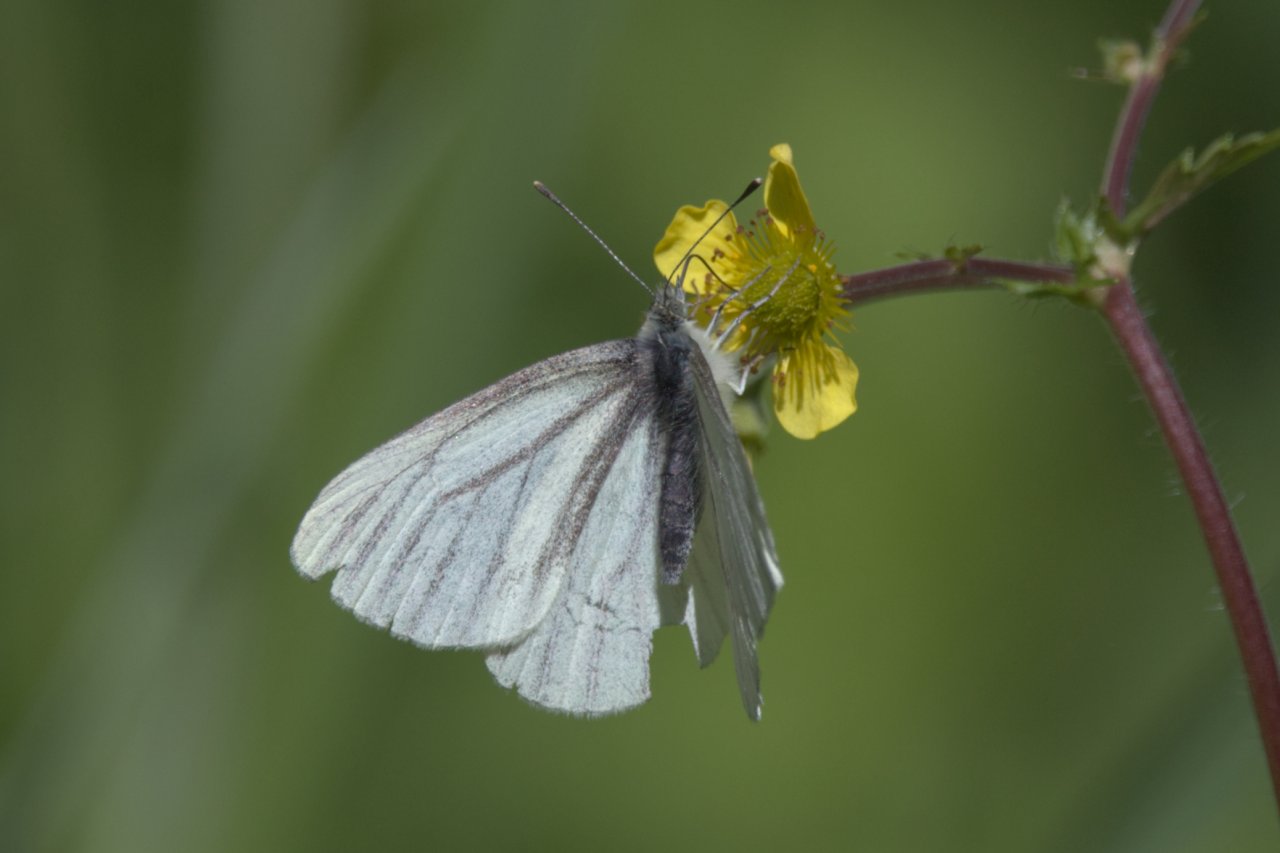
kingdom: Animalia
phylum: Arthropoda
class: Insecta
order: Lepidoptera
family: Pieridae
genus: Pieris
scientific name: Pieris marginalis
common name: Margined White
